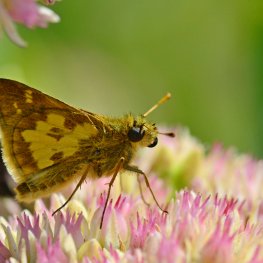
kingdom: Animalia
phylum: Arthropoda
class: Insecta
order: Lepidoptera
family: Hesperiidae
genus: Polites
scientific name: Polites coras
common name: Peck's Skipper
